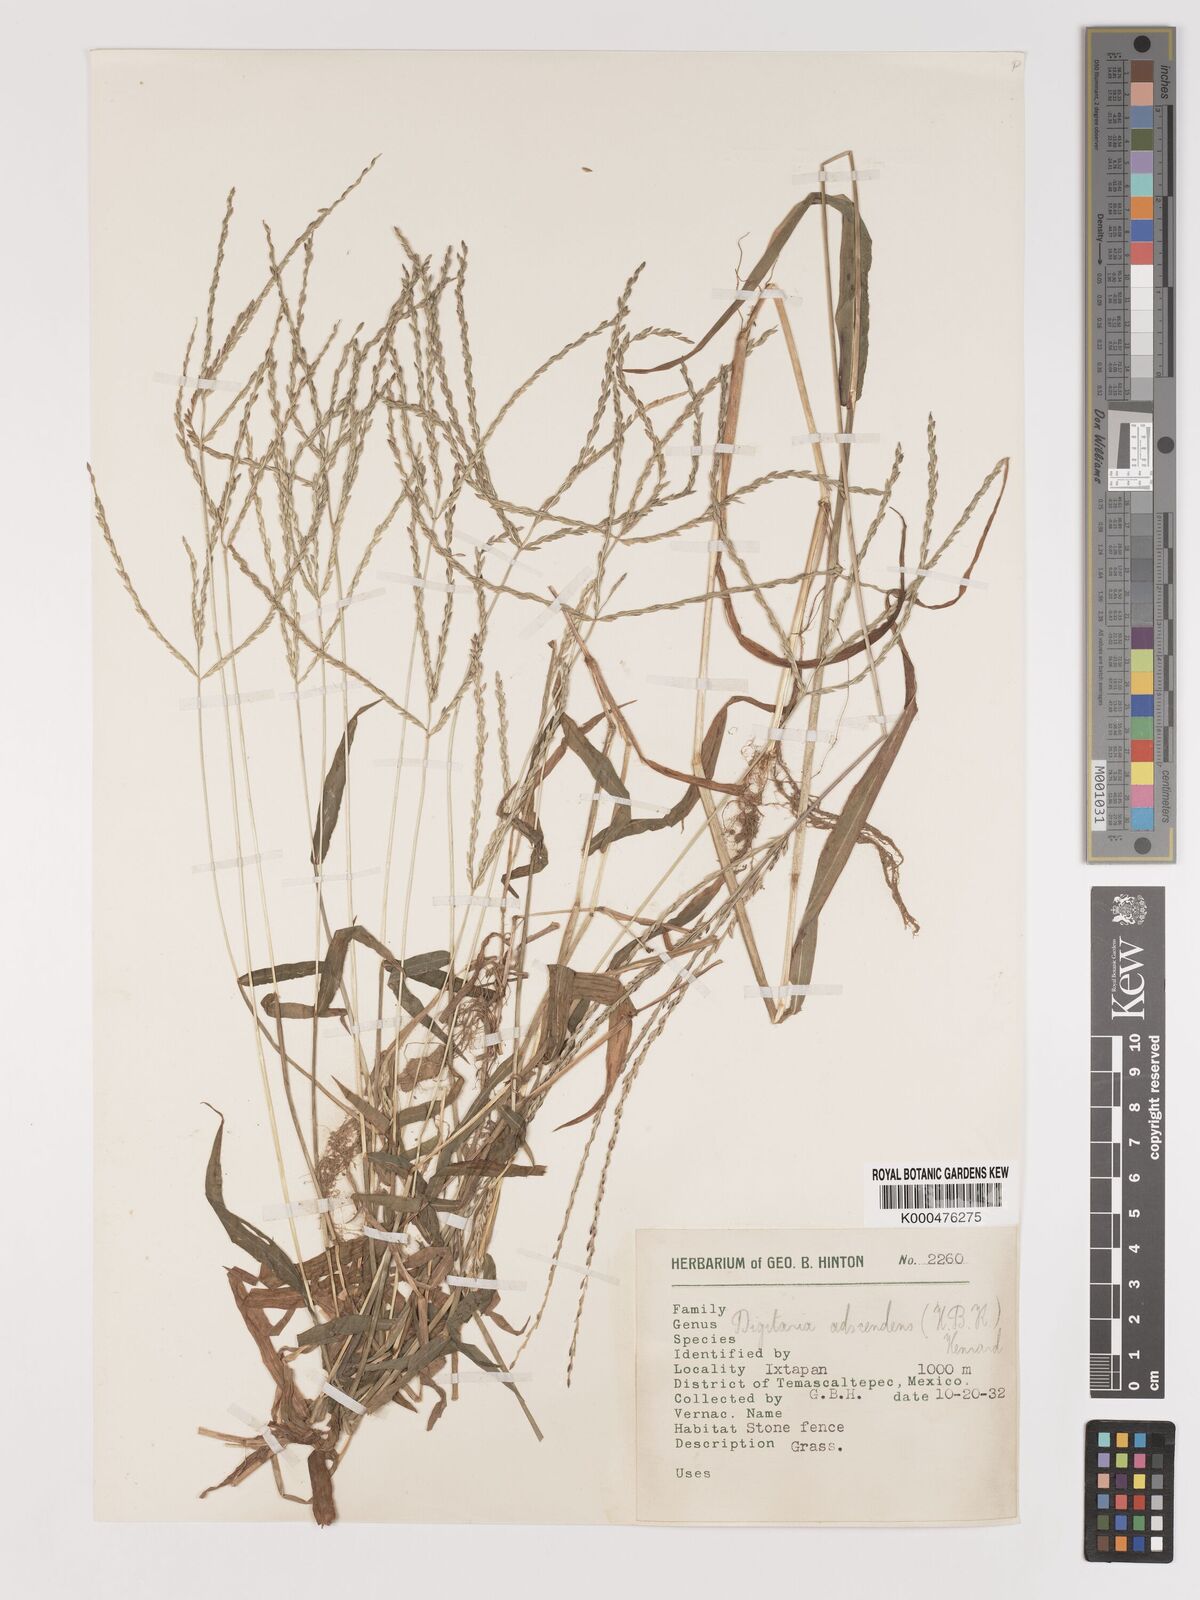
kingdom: Plantae
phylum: Tracheophyta
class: Liliopsida
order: Poales
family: Poaceae
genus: Digitaria
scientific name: Digitaria ciliaris
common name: Tropical finger-grass
